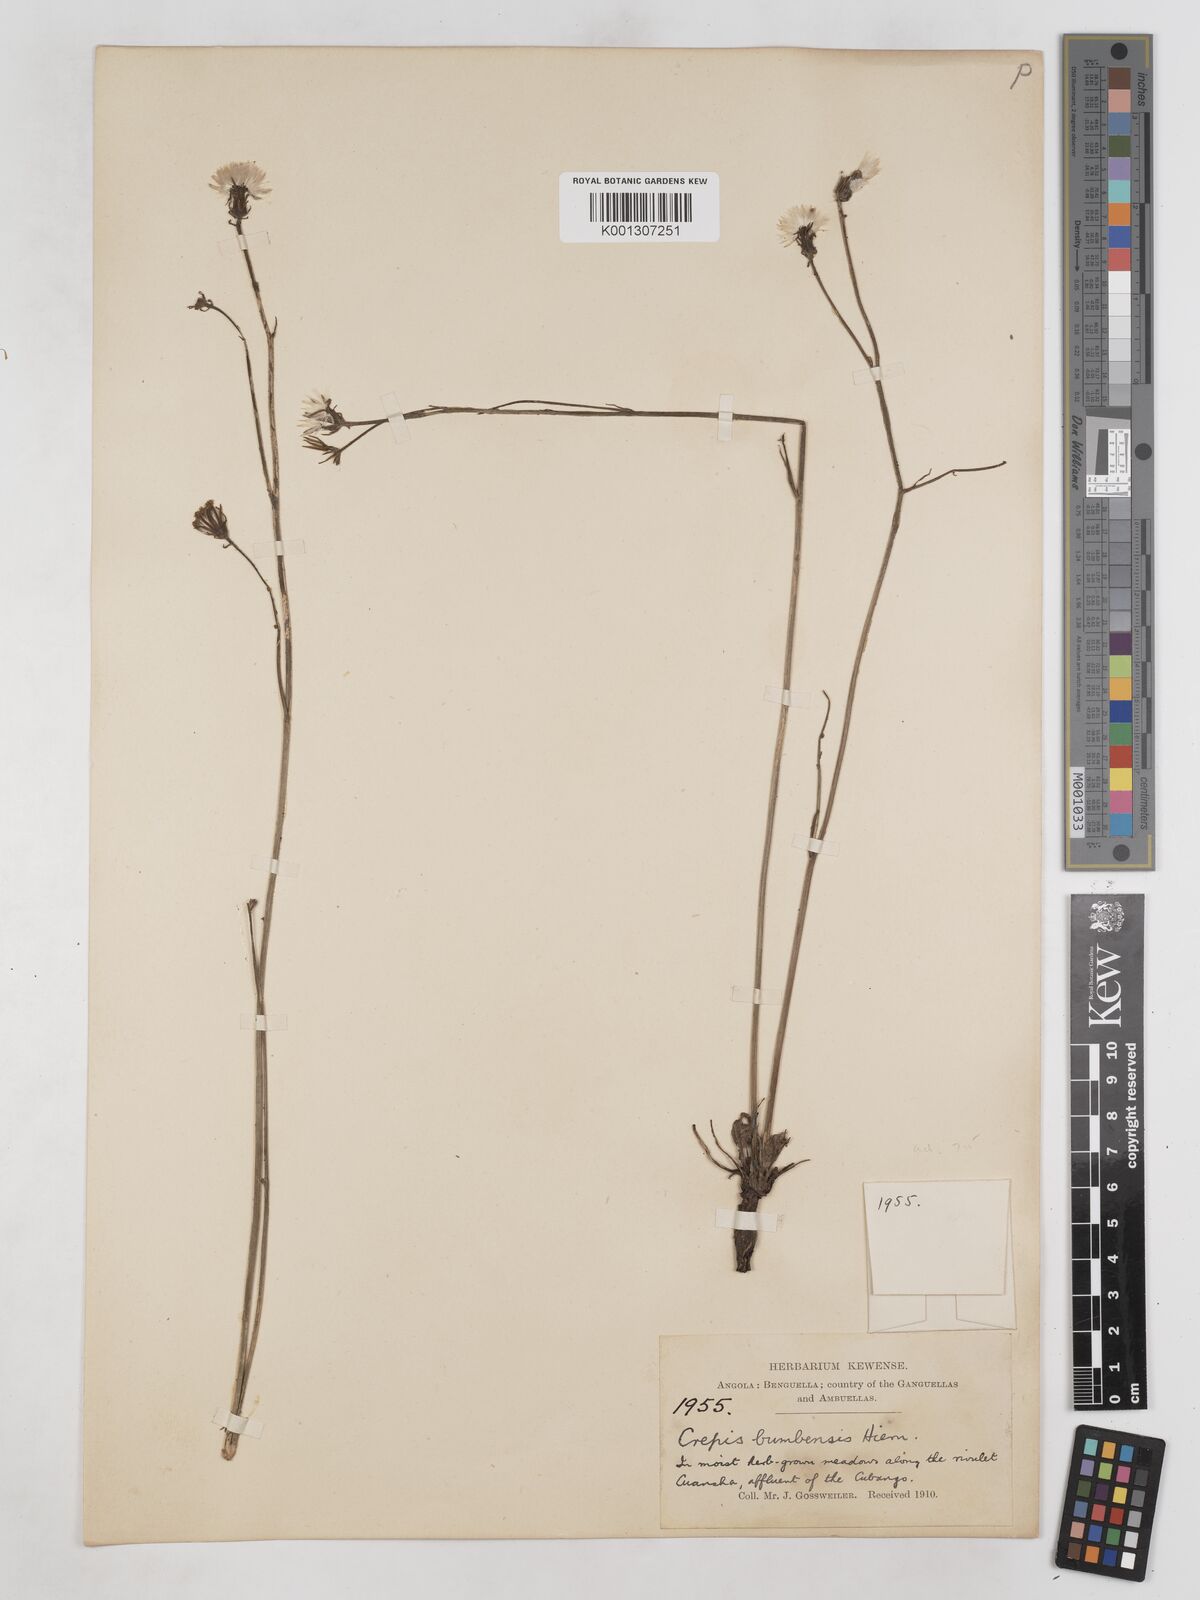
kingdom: Plantae
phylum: Tracheophyta
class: Magnoliopsida
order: Asterales
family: Asteraceae
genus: Crepis
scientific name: Crepis hypochoeridea
